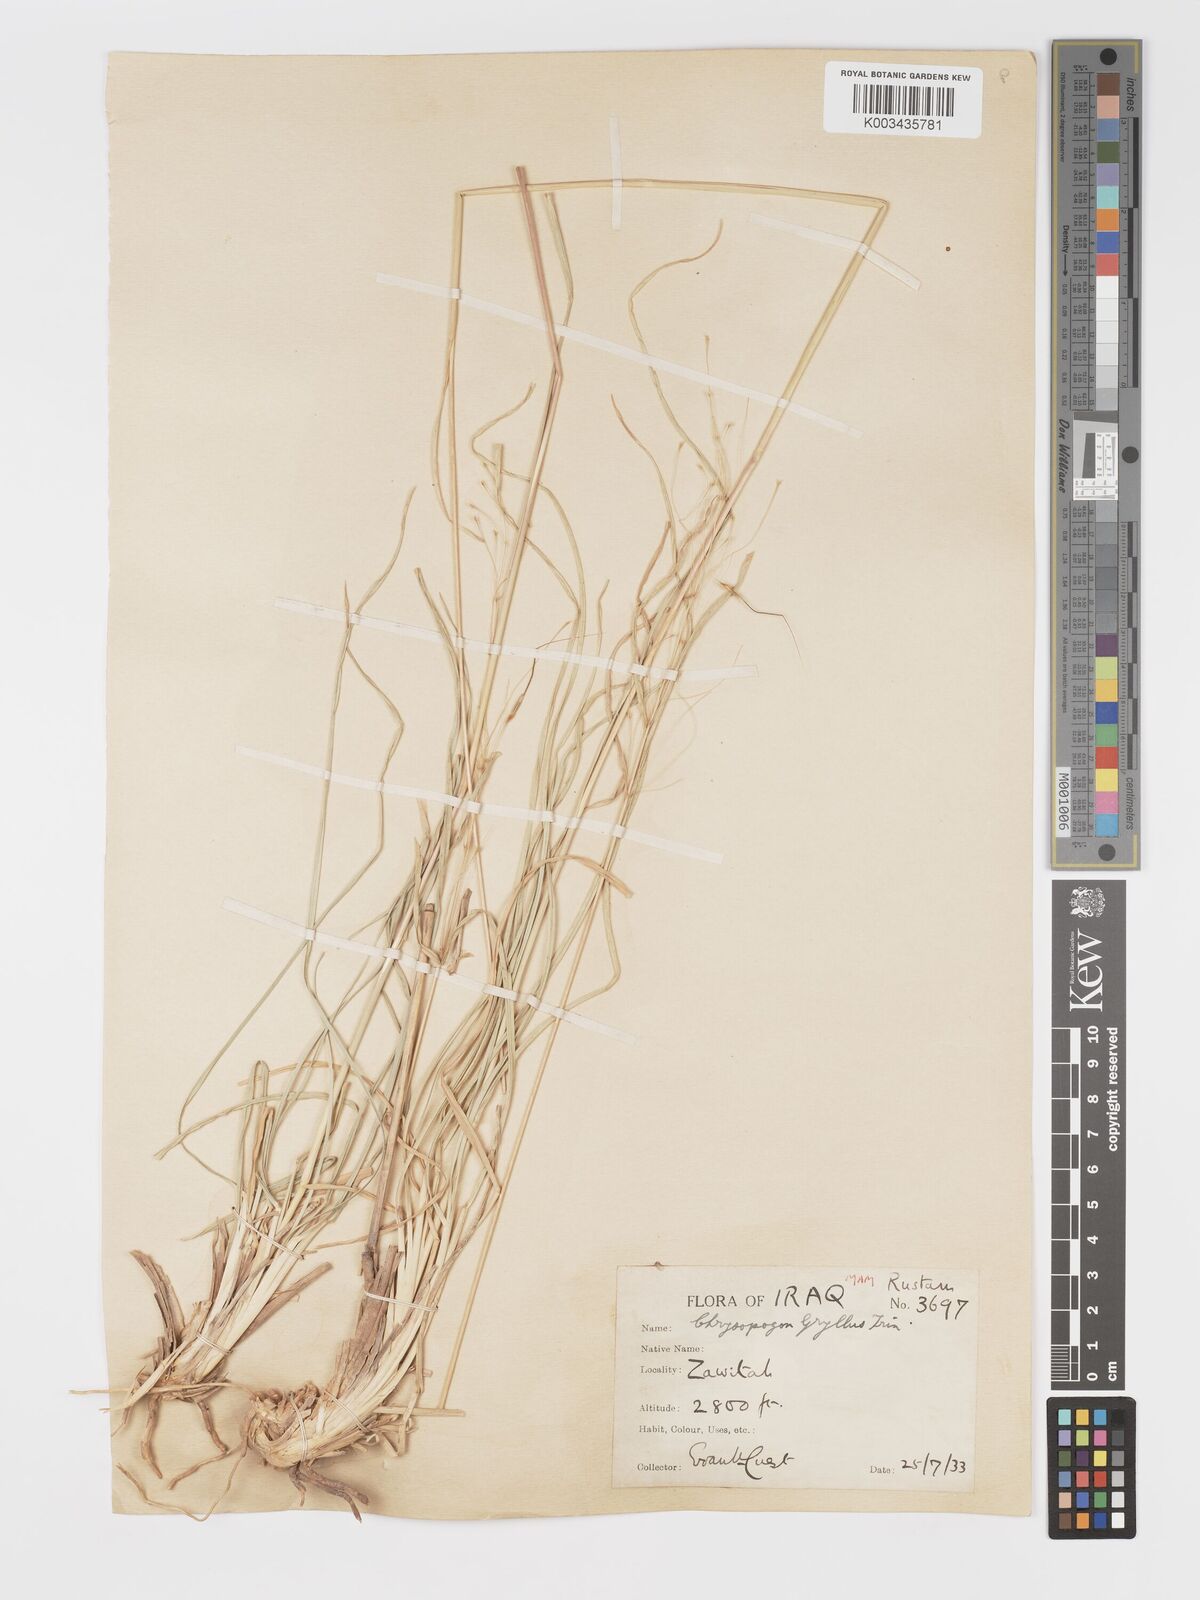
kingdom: Plantae
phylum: Tracheophyta
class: Liliopsida
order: Poales
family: Poaceae
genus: Chrysopogon
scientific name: Chrysopogon gryllus
